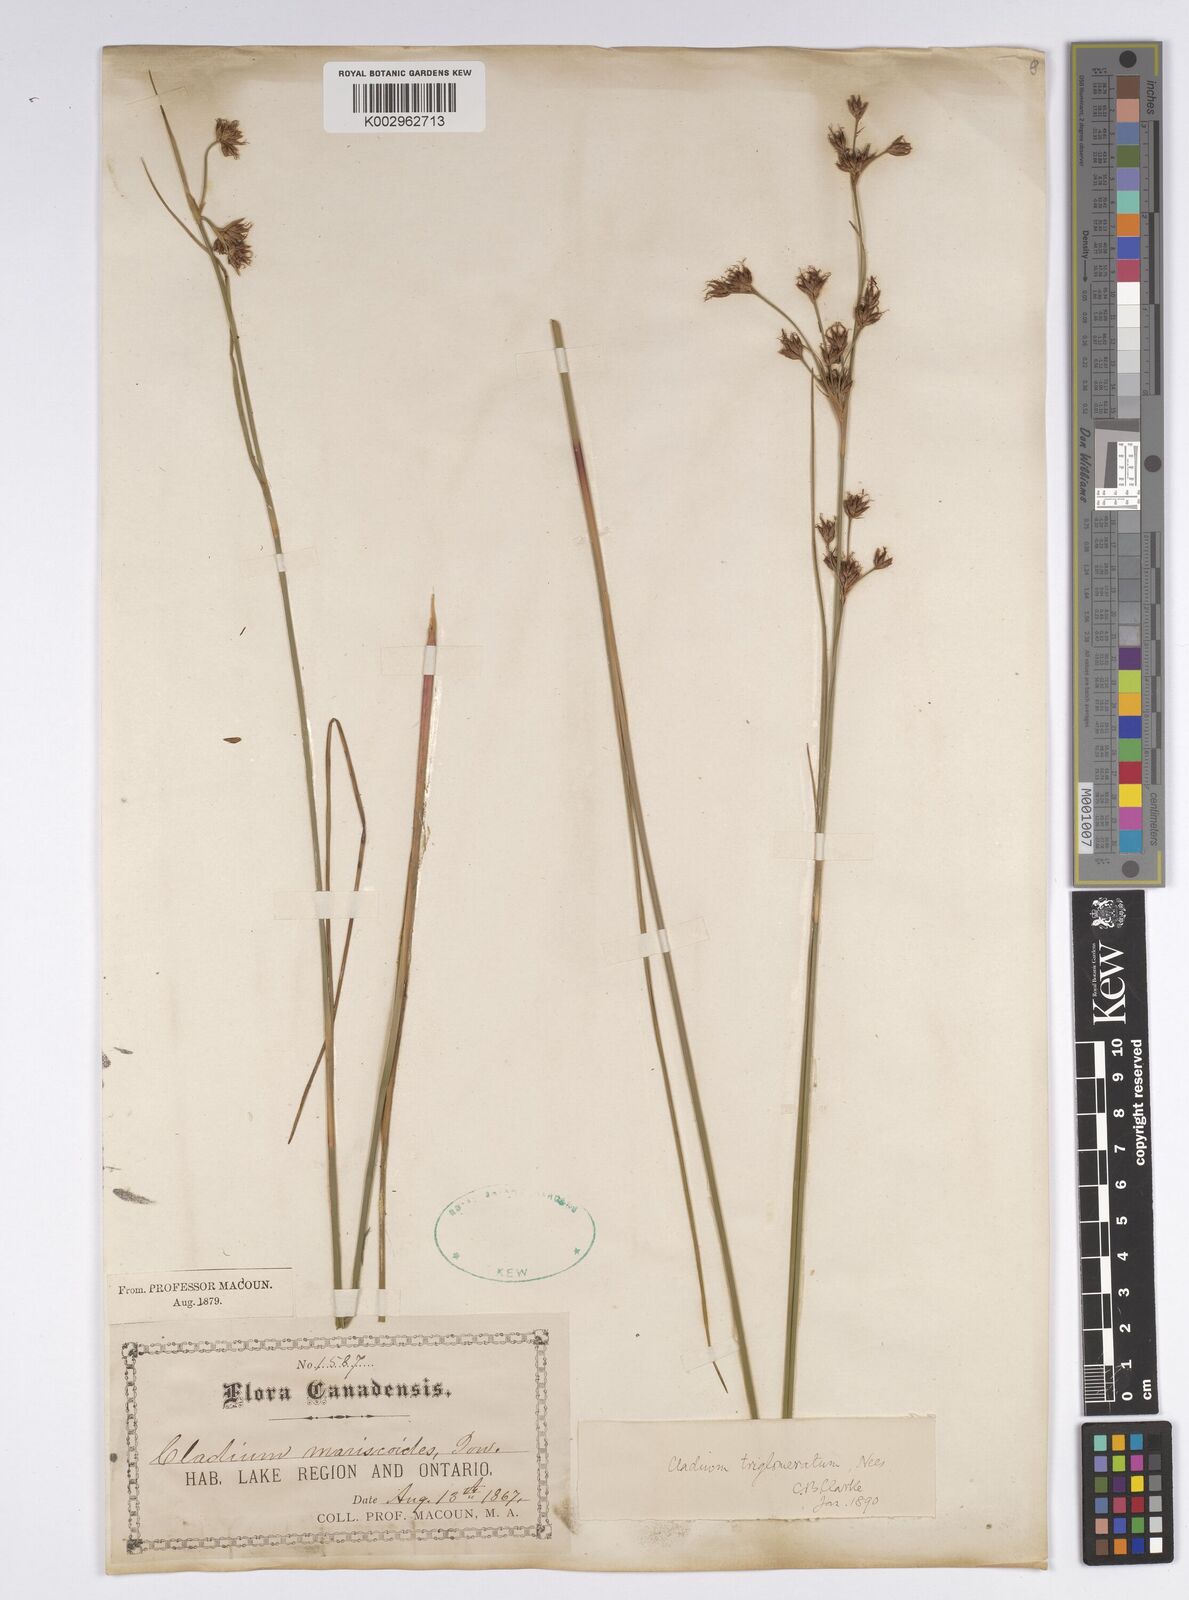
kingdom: Plantae
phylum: Tracheophyta
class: Liliopsida
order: Poales
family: Cyperaceae
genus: Cladium
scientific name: Cladium mariscoides
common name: Smooth sawgrass
